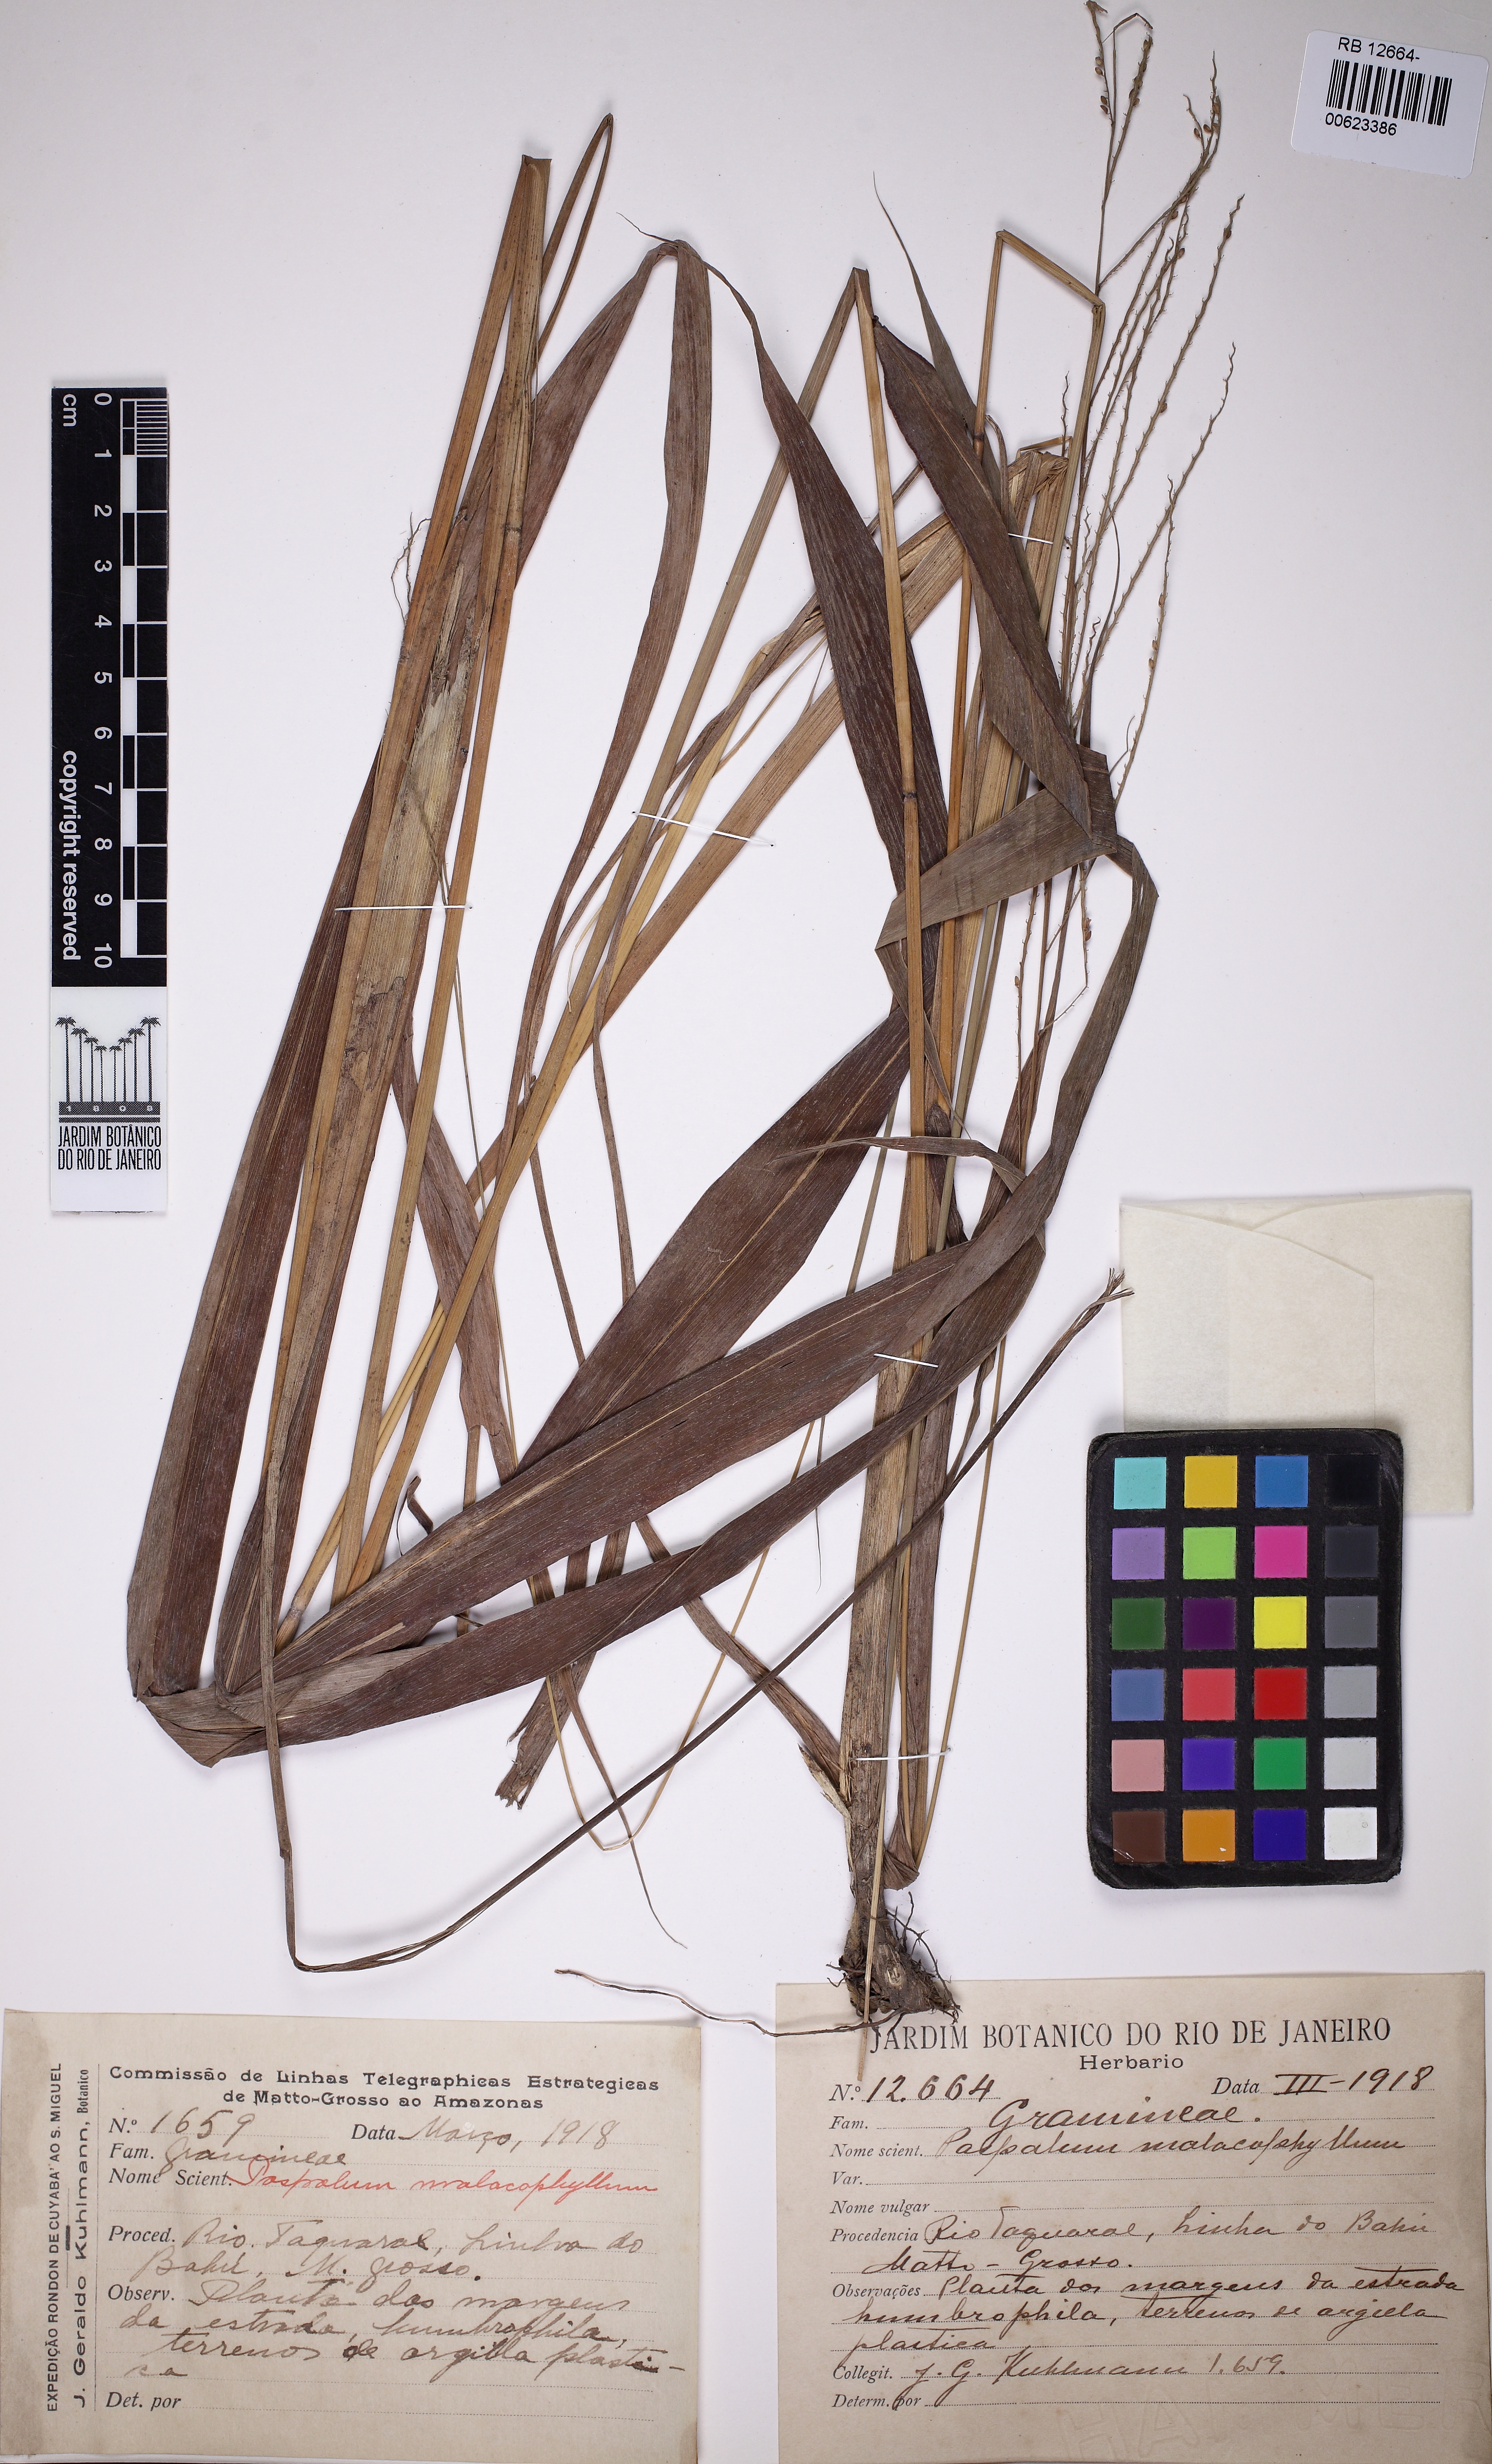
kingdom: Plantae
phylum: Tracheophyta
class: Liliopsida
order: Poales
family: Poaceae
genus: Paspalum
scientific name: Paspalum malacophyllum
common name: Ribbed paspalum
